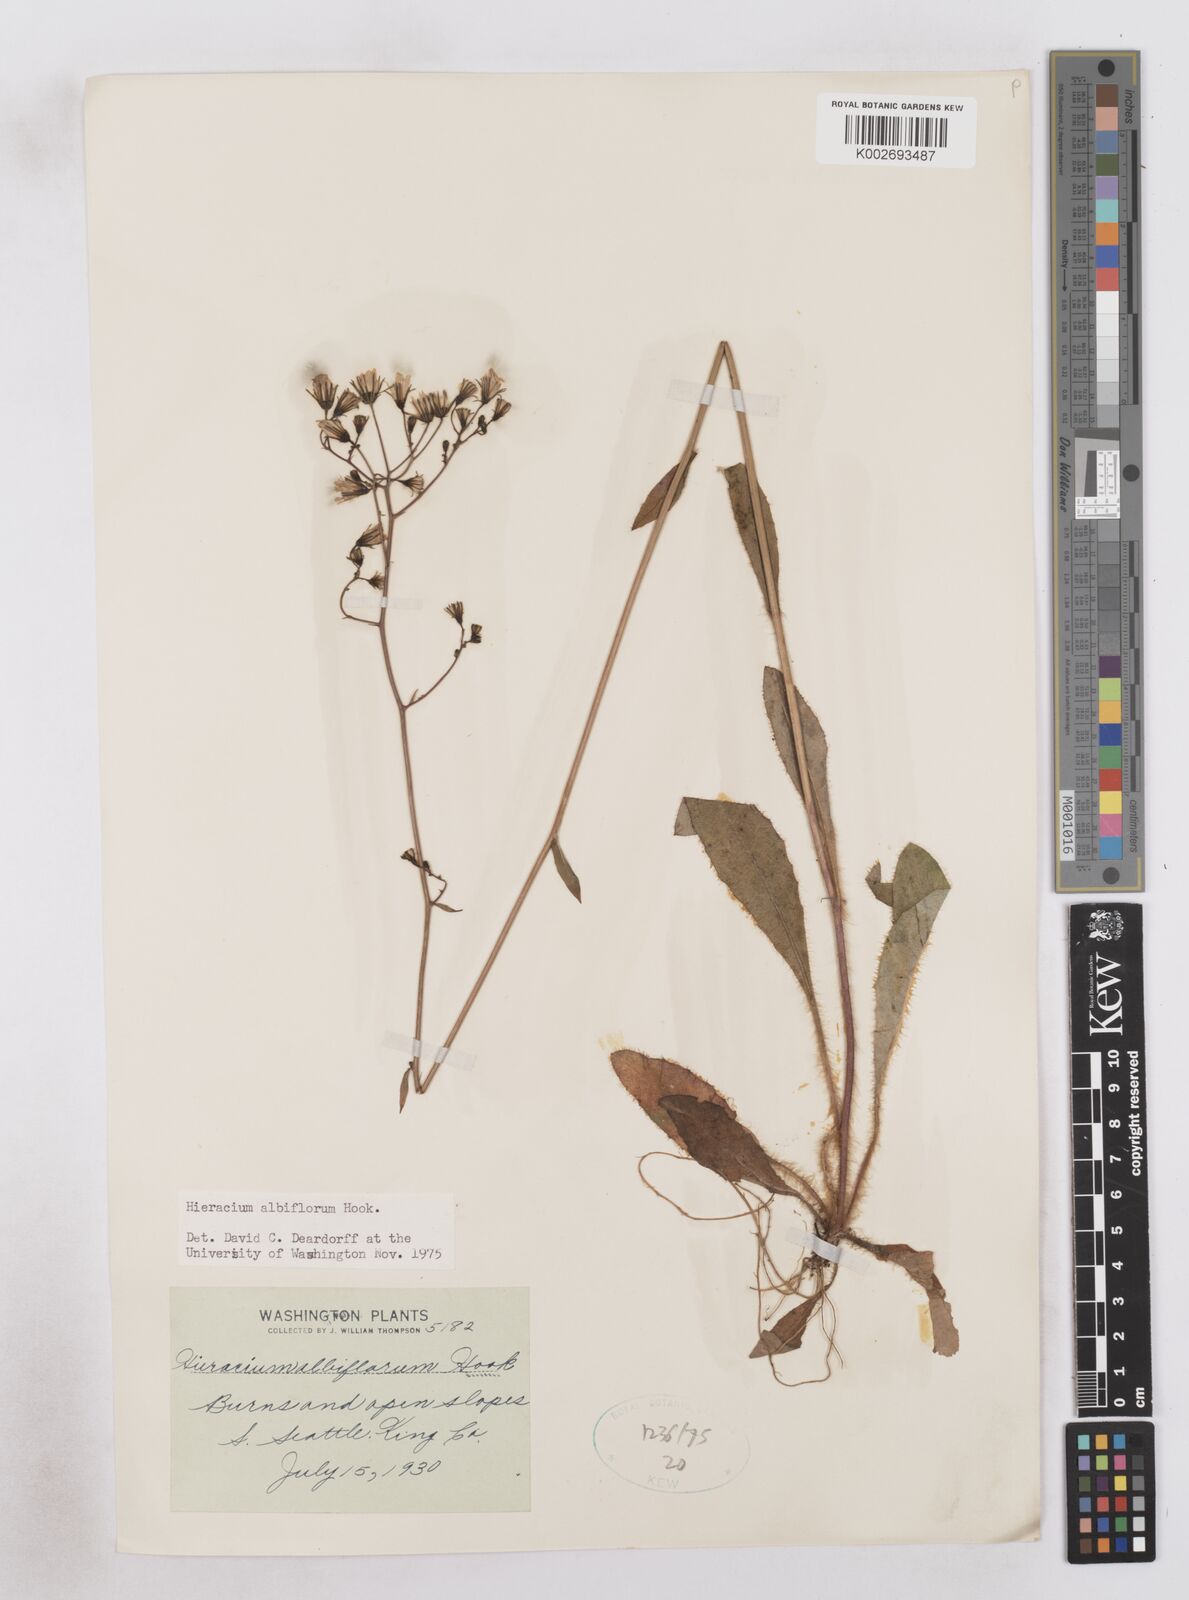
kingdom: Plantae
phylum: Tracheophyta
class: Magnoliopsida
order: Asterales
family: Asteraceae
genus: Hieracium
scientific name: Hieracium albiflorum
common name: White hawkweed
